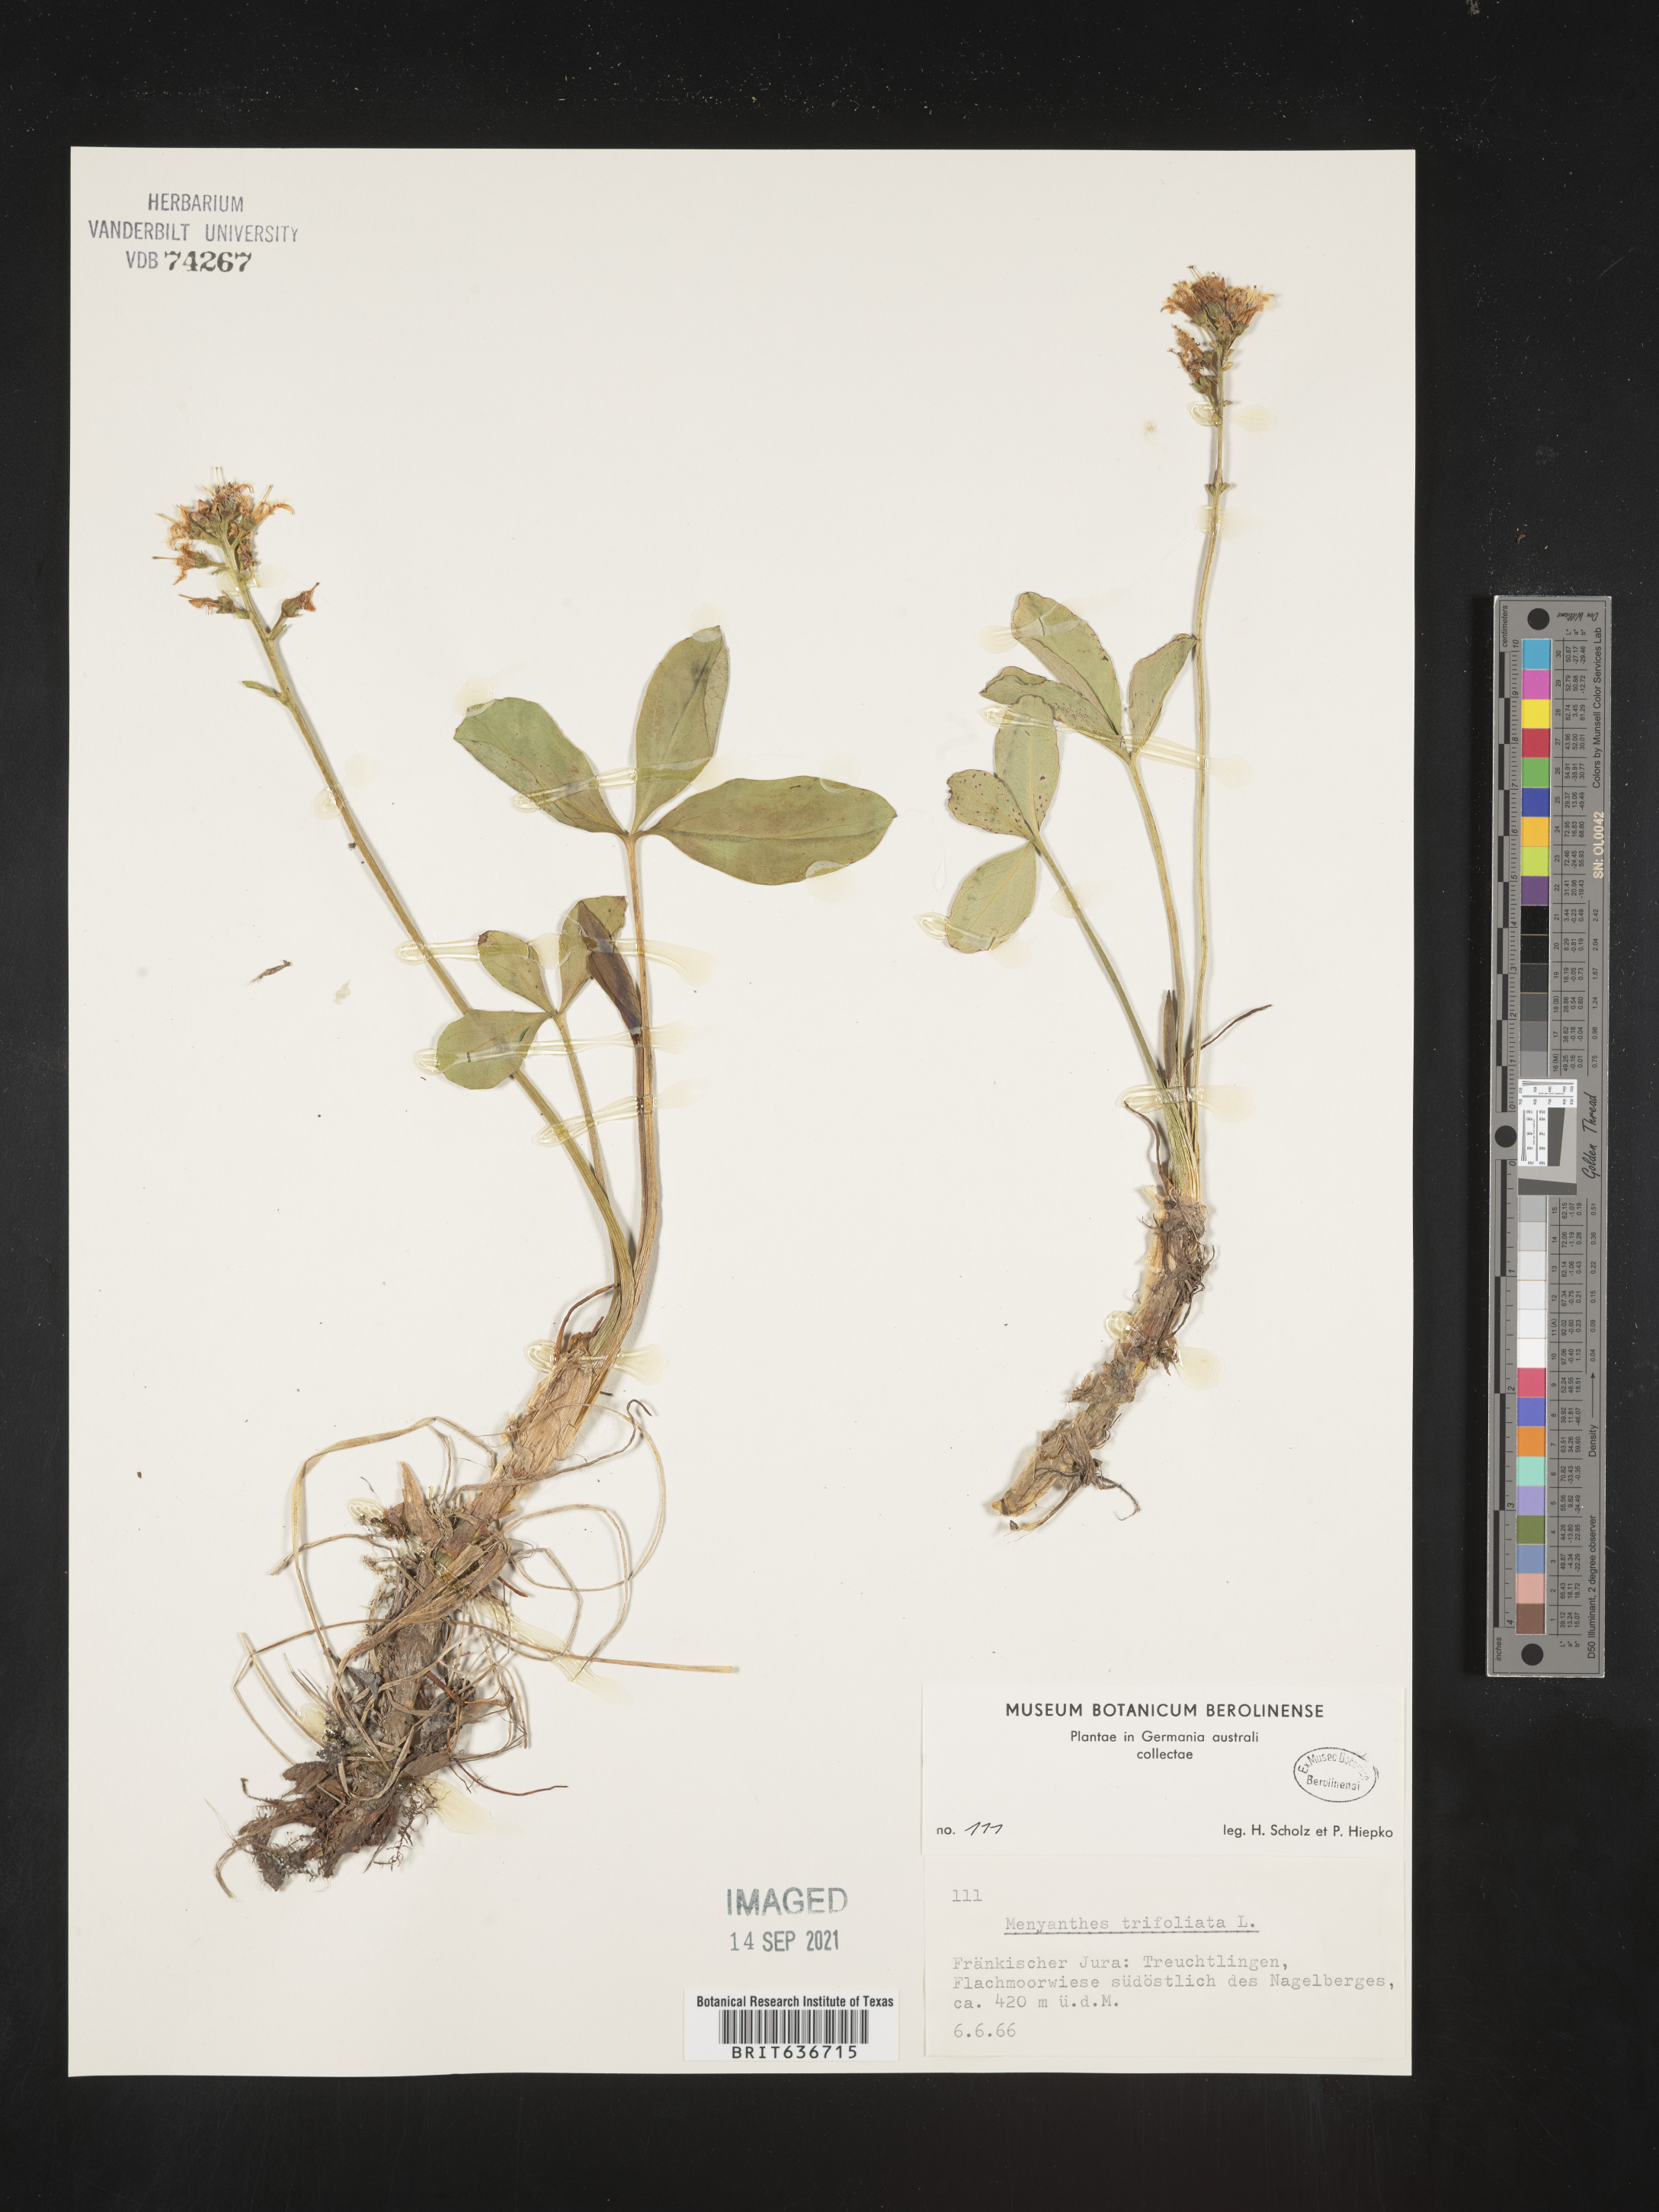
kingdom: Plantae
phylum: Tracheophyta
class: Magnoliopsida
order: Asterales
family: Menyanthaceae
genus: Menyanthes
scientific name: Menyanthes
